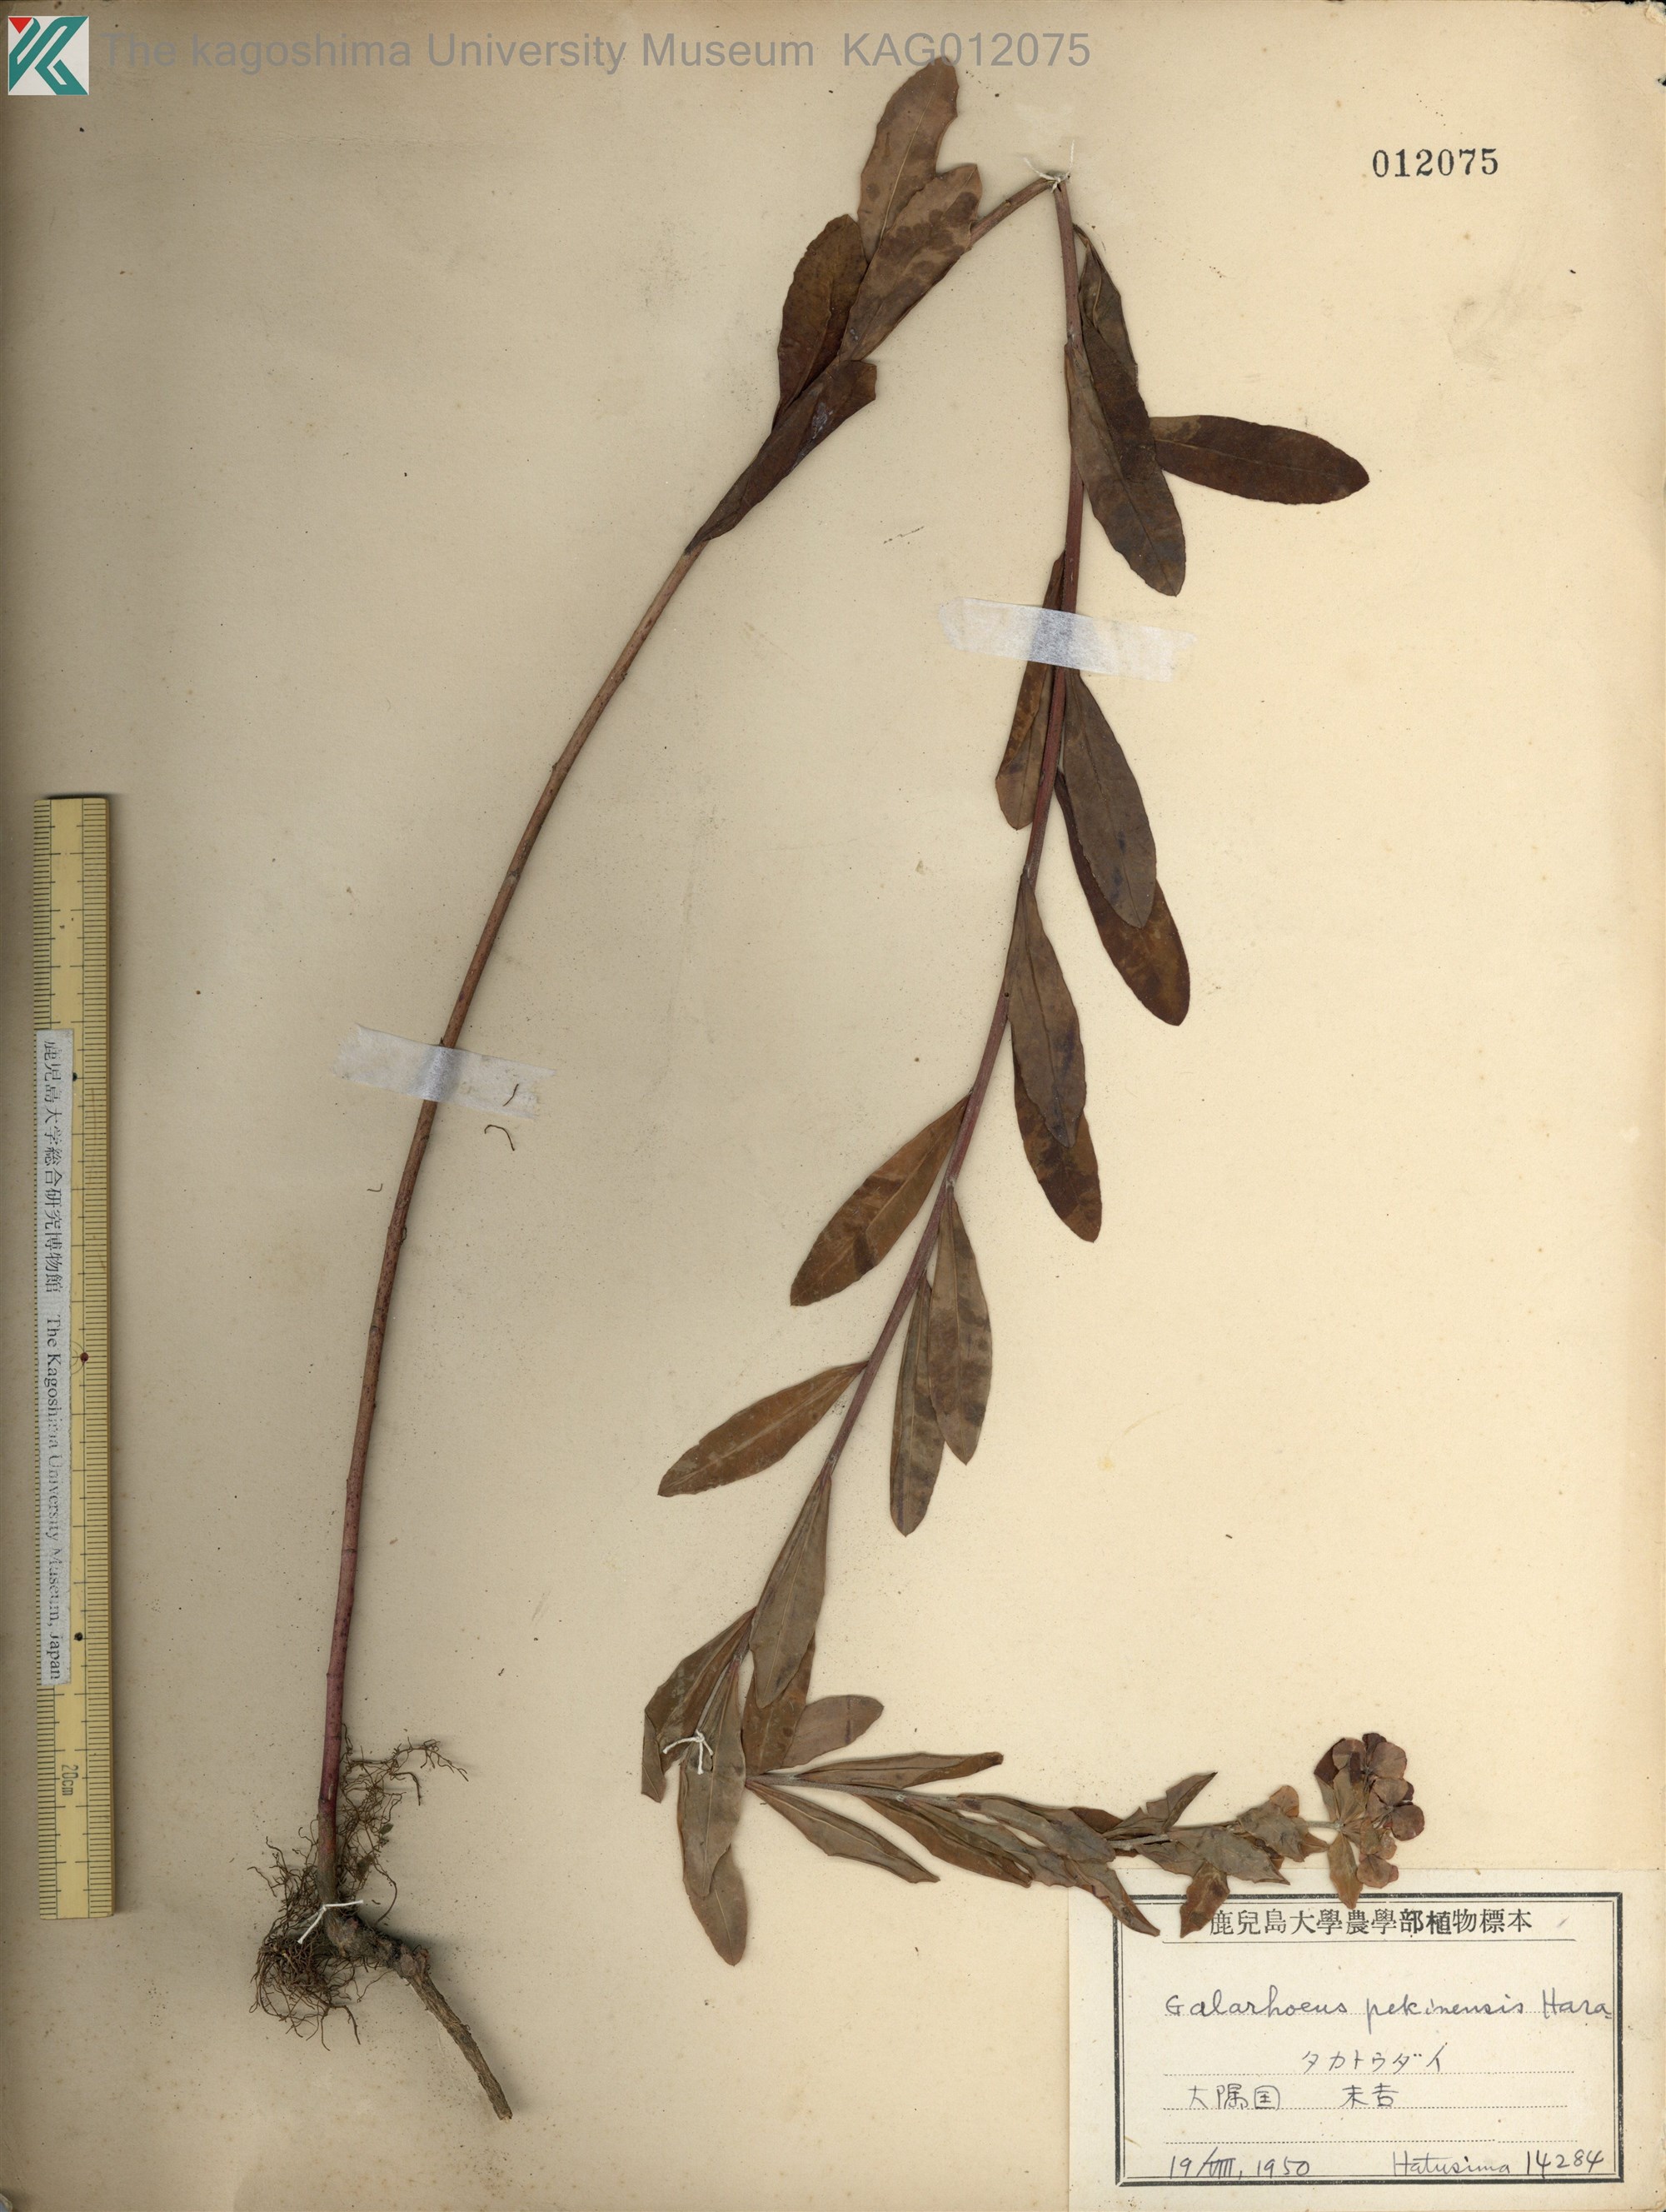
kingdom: Plantae
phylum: Tracheophyta
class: Magnoliopsida
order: Malpighiales
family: Euphorbiaceae
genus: Euphorbia
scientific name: Euphorbia pekinensis
